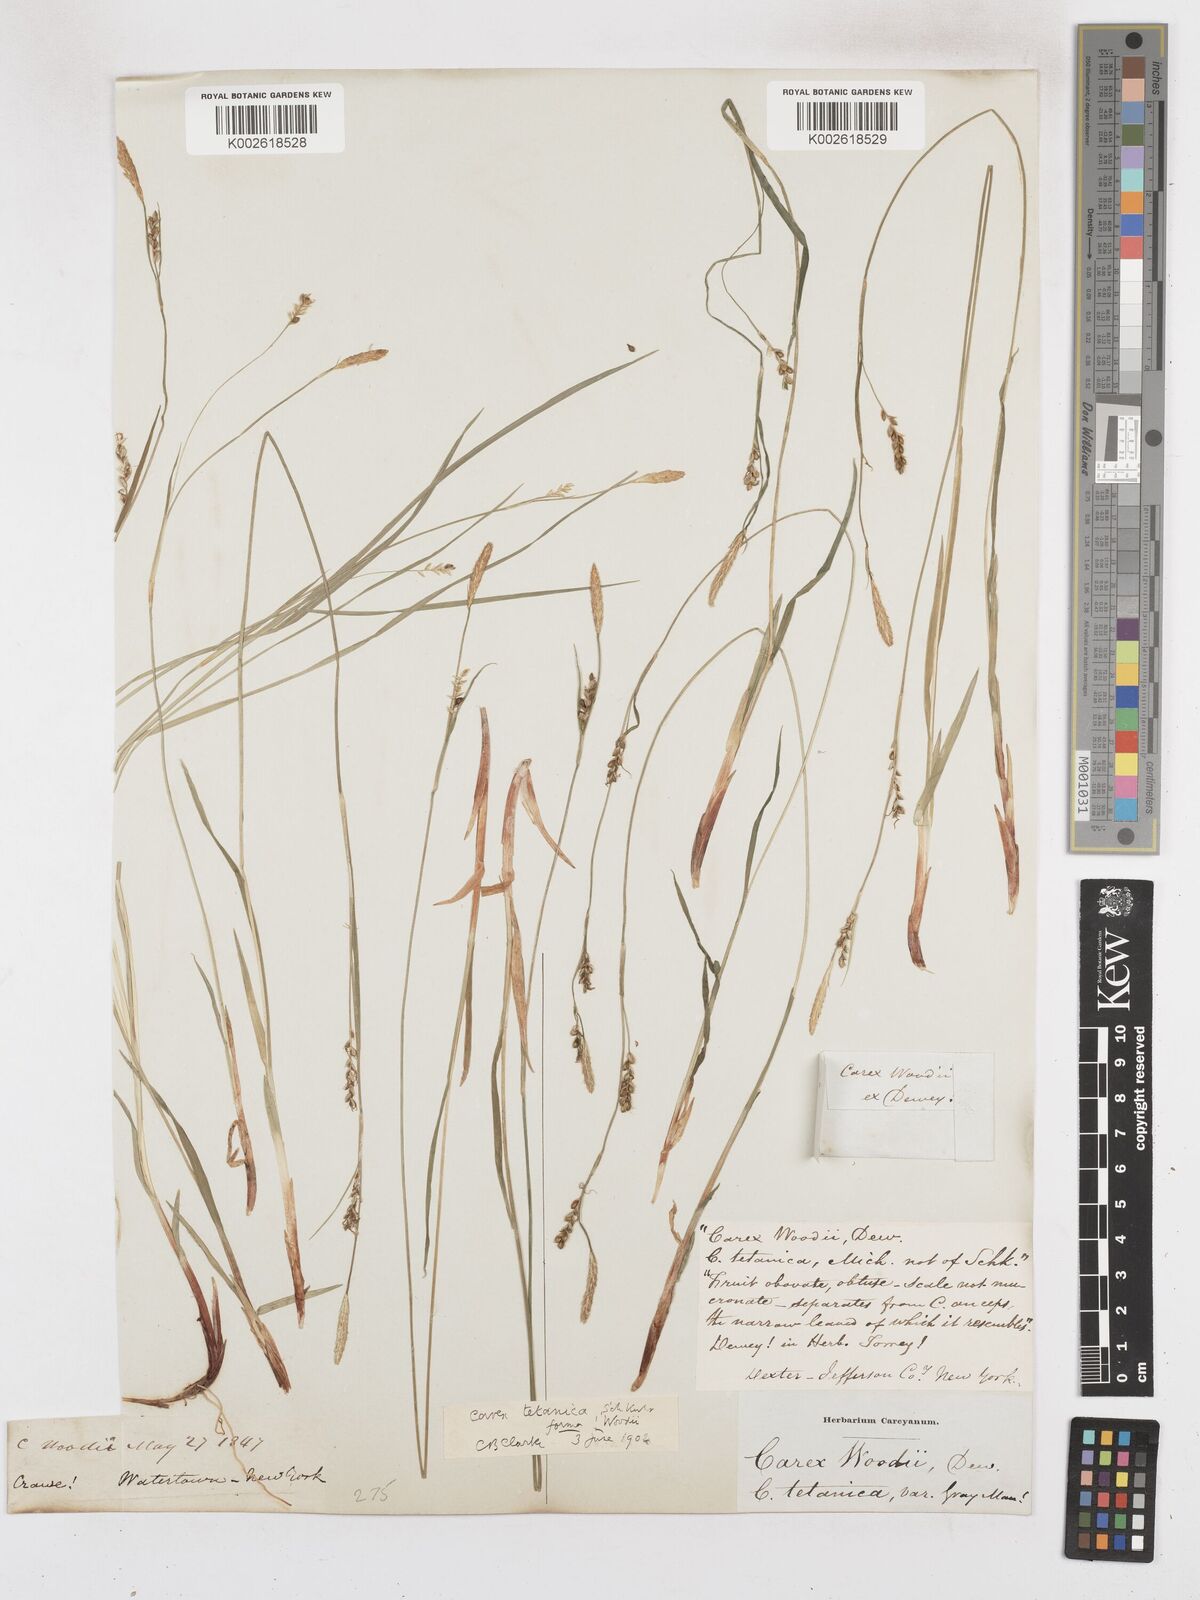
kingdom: Plantae
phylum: Tracheophyta
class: Liliopsida
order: Poales
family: Cyperaceae
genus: Carex
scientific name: Carex tetanica
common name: Rigid sedge
